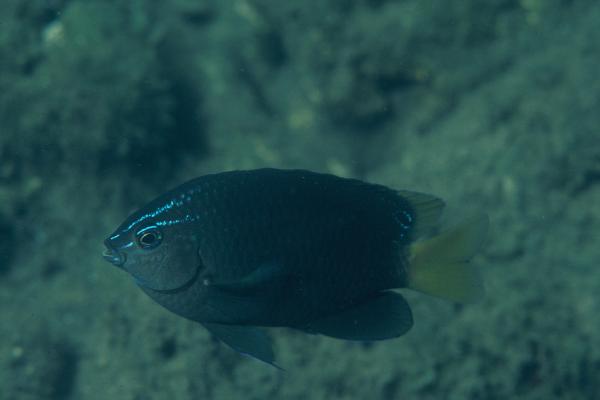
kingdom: Animalia
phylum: Chordata
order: Perciformes
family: Pomacentridae
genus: Pomacentrus
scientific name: Pomacentrus taeniometopon
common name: Brackish damsel
